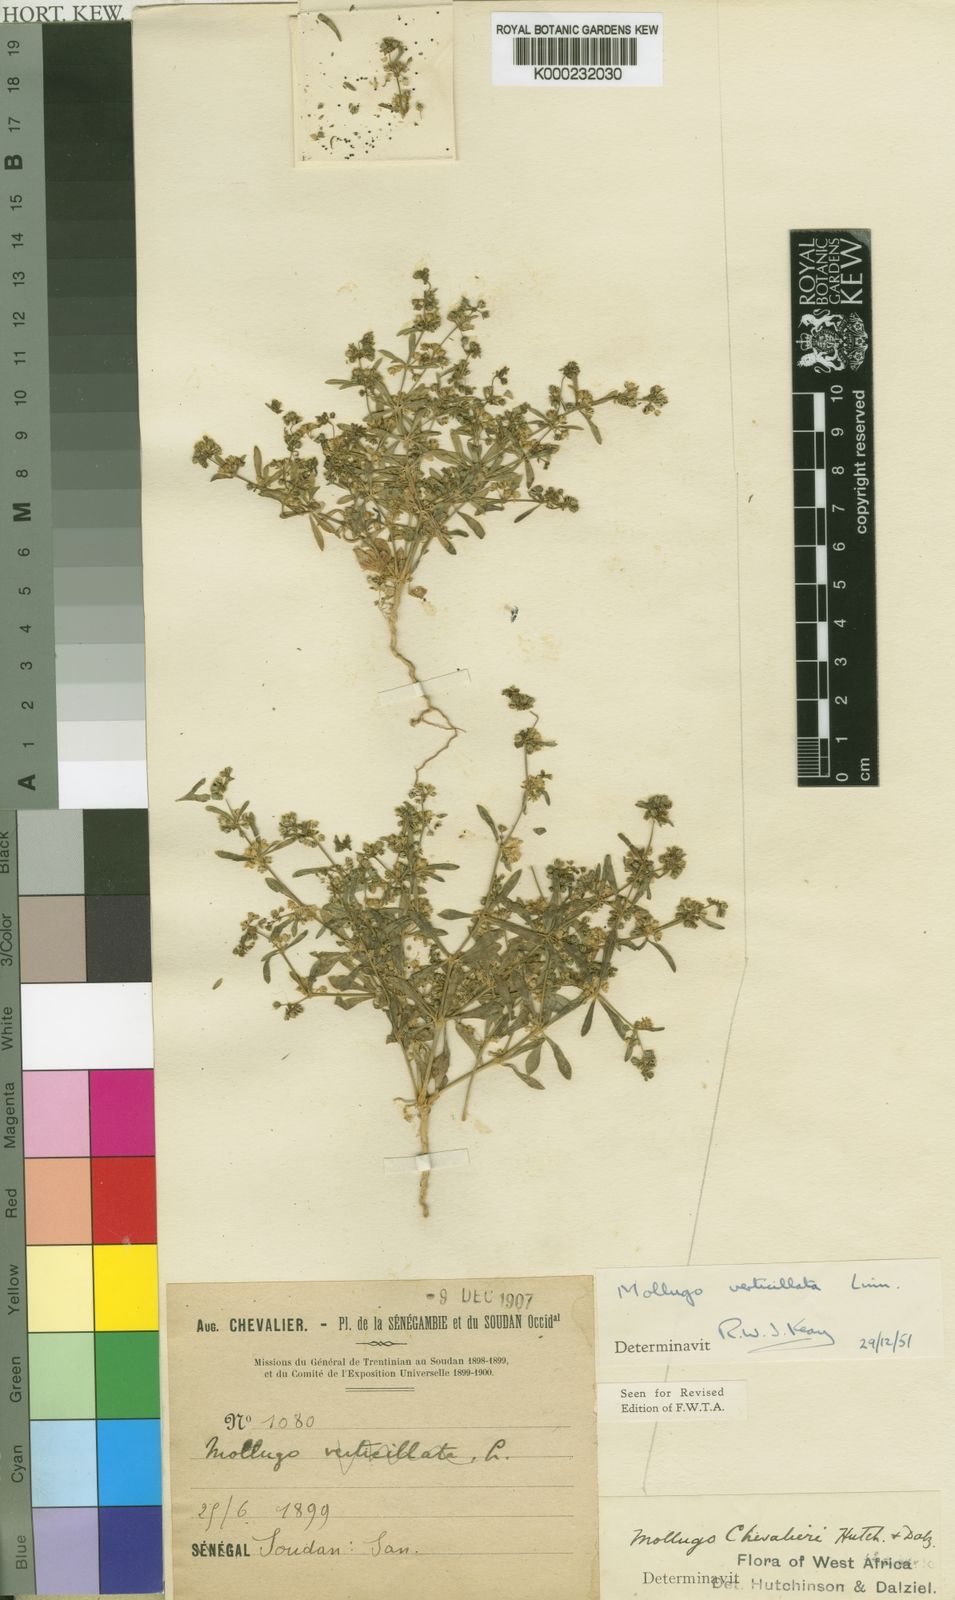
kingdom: Plantae
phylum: Tracheophyta
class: Magnoliopsida
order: Caryophyllales
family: Molluginaceae
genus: Mollugo
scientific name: Mollugo verticillata
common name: Green carpetweed
